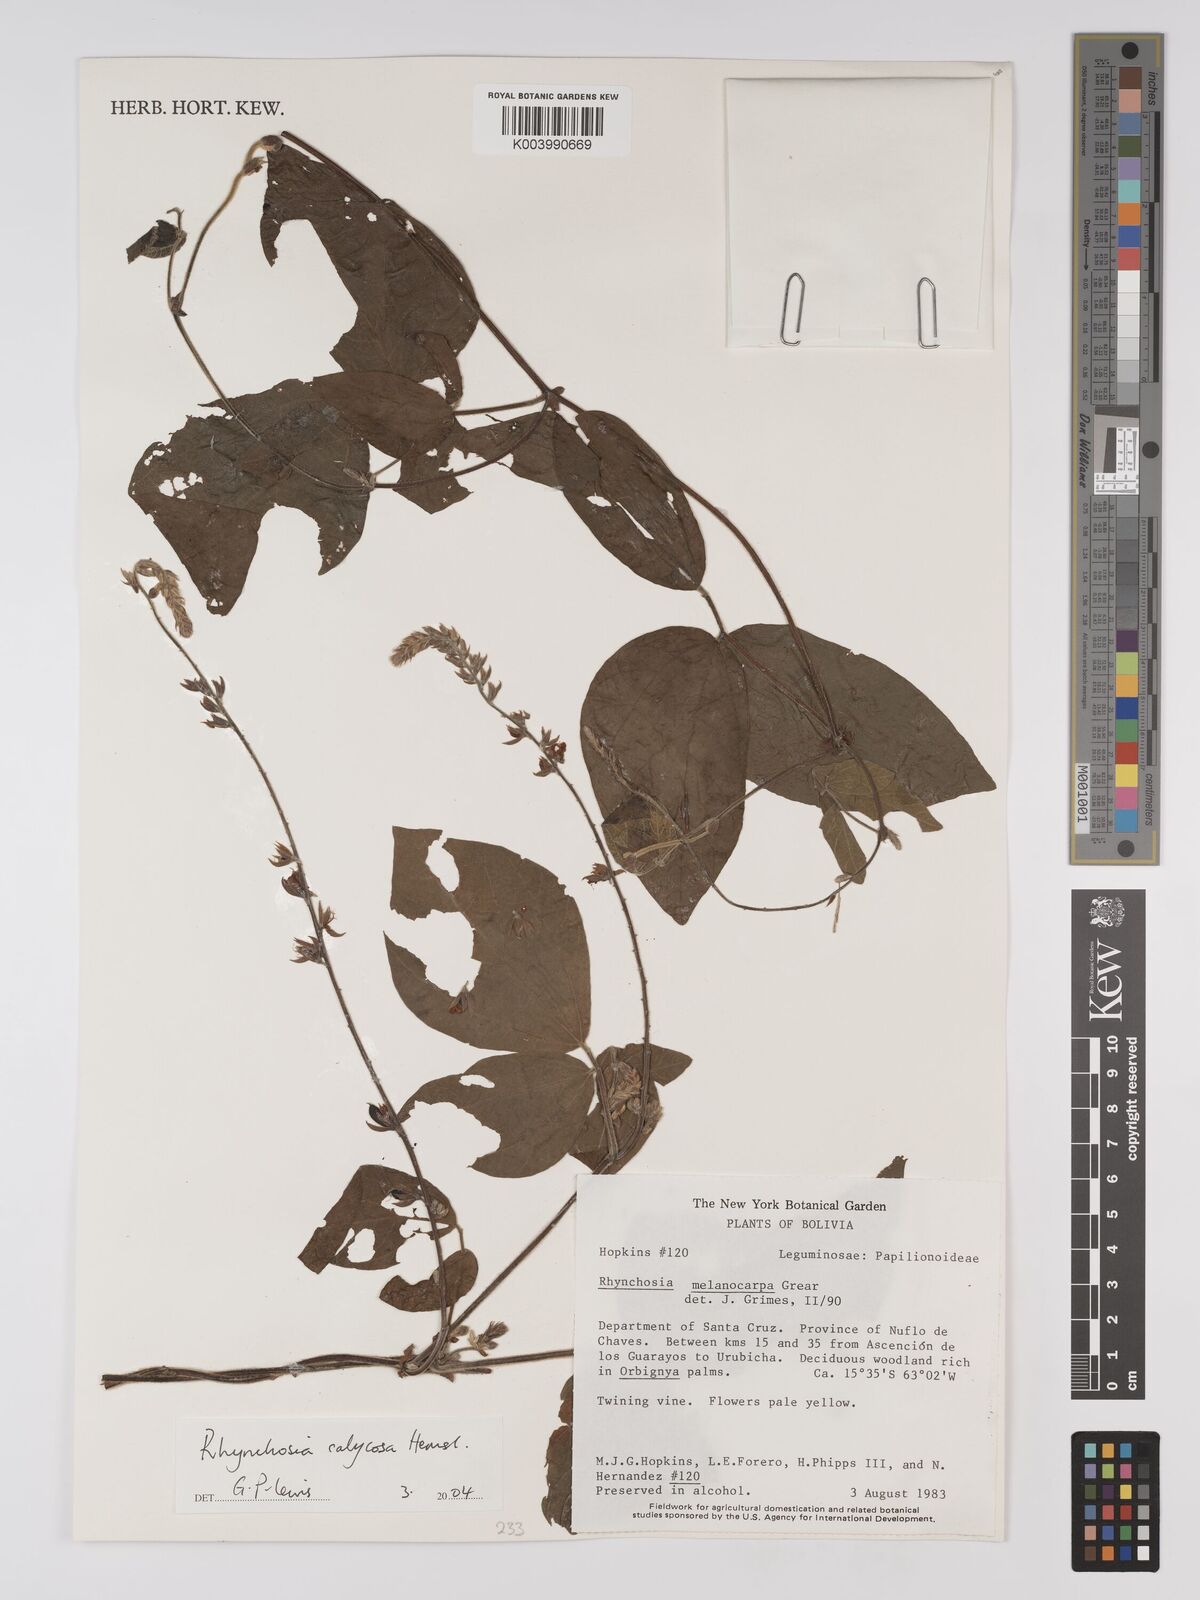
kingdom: Plantae
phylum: Tracheophyta
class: Magnoliopsida
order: Fabales
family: Fabaceae
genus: Rhynchosia
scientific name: Rhynchosia schomburgkii
